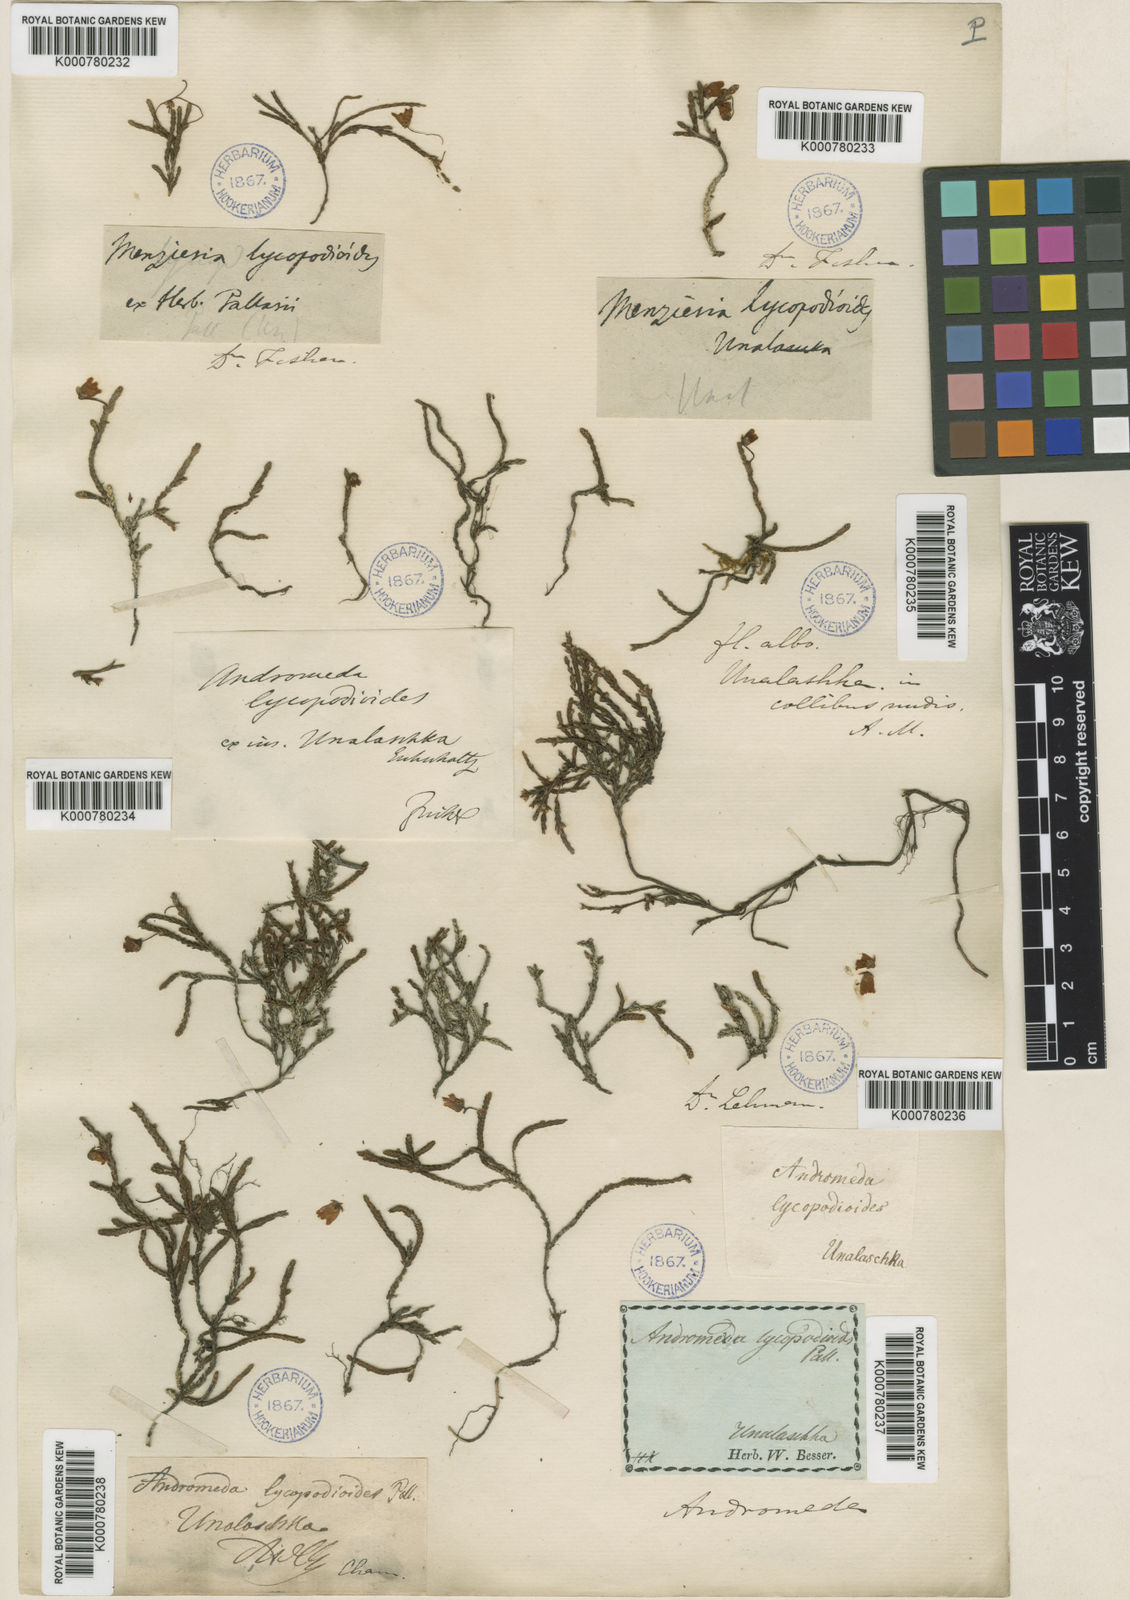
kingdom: Plantae
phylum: Tracheophyta
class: Magnoliopsida
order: Ericales
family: Ericaceae
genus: Cassiope
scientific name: Cassiope lycopodioides
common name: Clubmoss mountain heather
